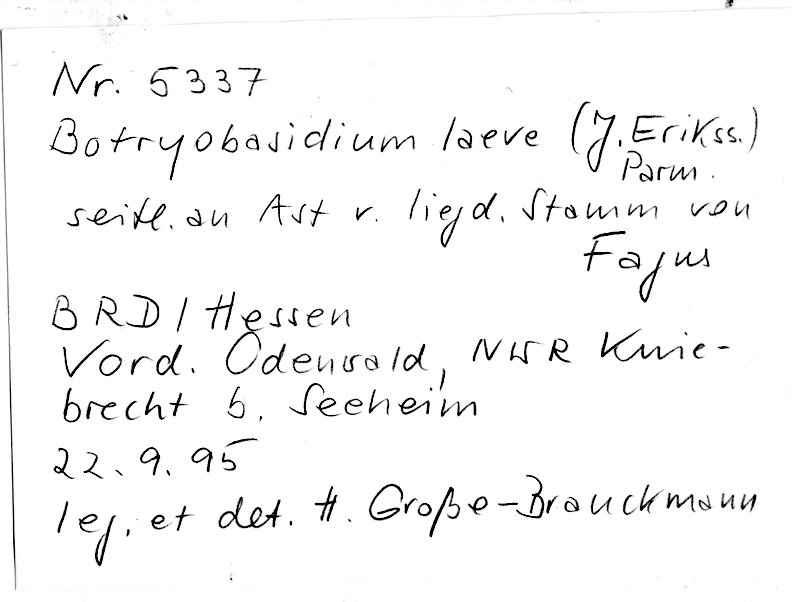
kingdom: Plantae
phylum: Tracheophyta
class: Magnoliopsida
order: Fagales
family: Fagaceae
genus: Fagus
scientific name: Fagus sylvatica
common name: Beech
